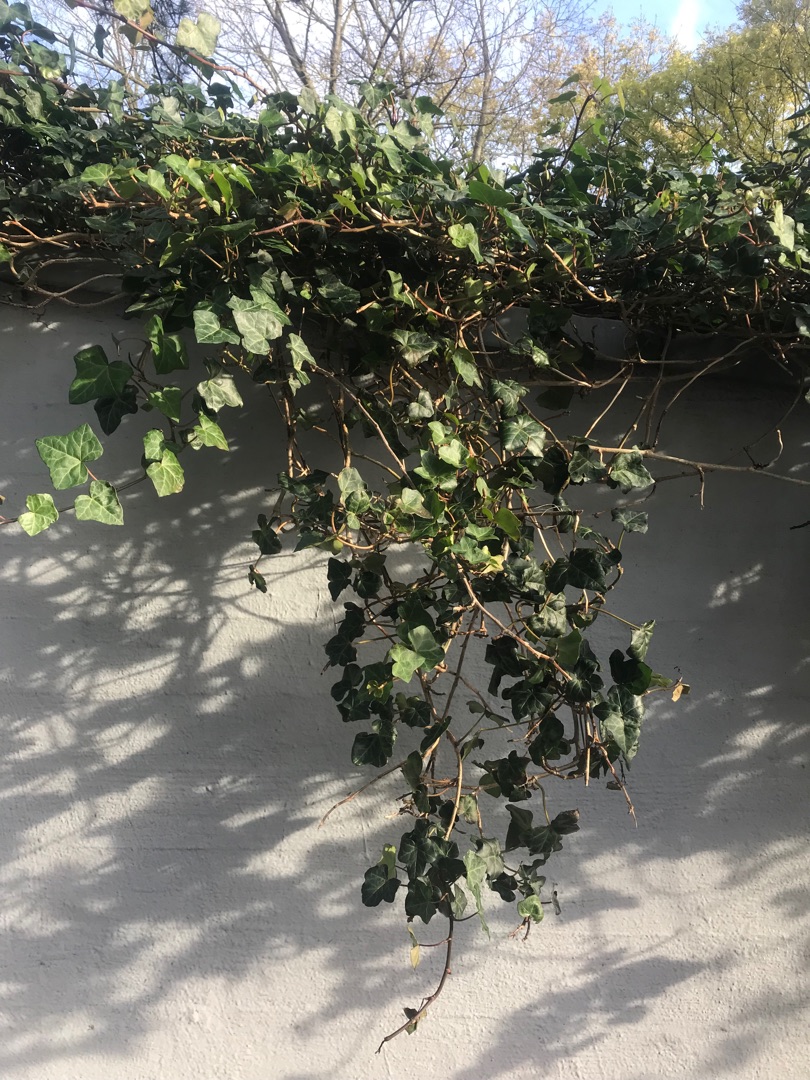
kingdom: Plantae
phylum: Tracheophyta
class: Magnoliopsida
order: Apiales
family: Araliaceae
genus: Hedera
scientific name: Hedera helix
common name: Vedbend
